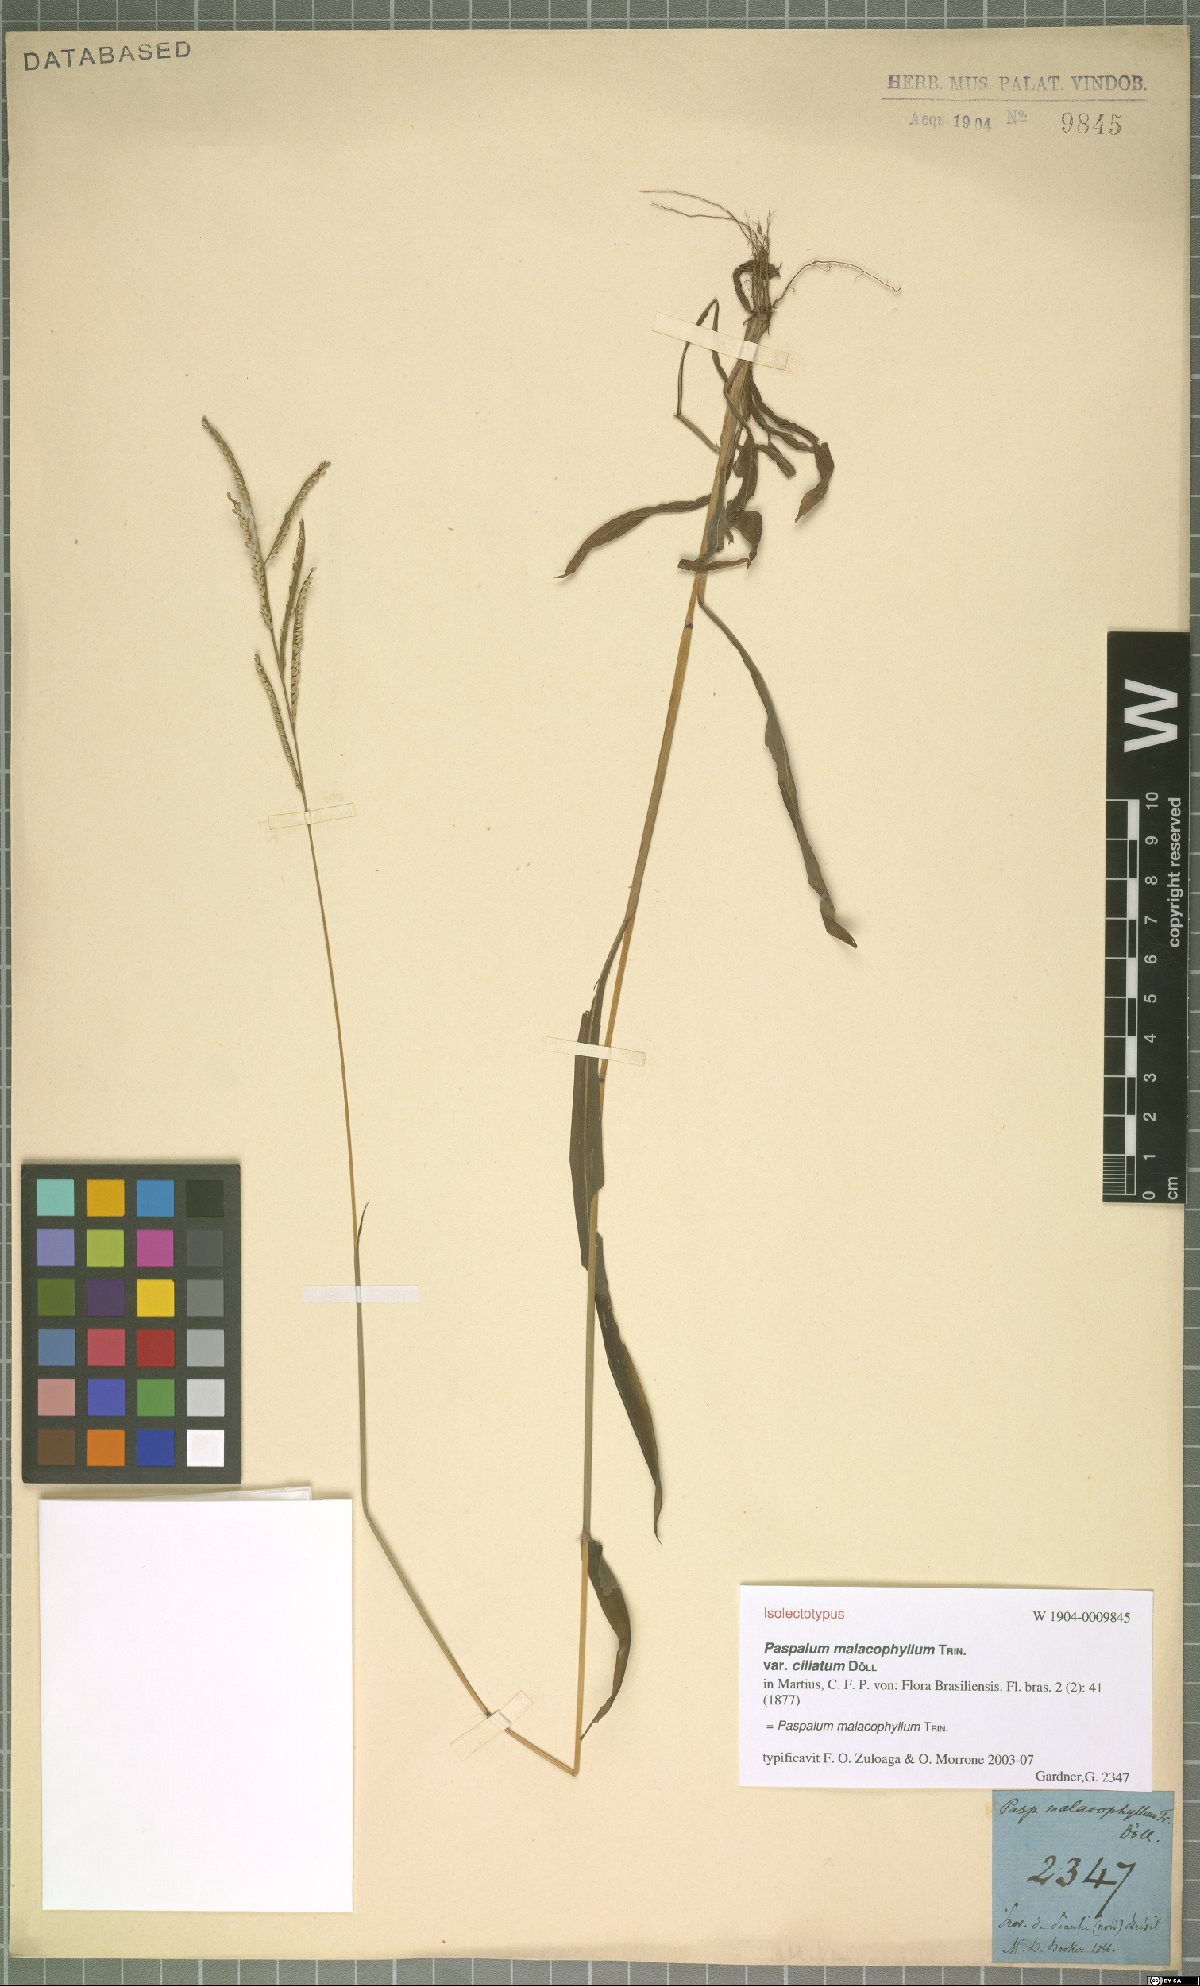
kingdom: Plantae
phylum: Tracheophyta
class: Liliopsida
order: Poales
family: Poaceae
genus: Paspalum
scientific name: Paspalum malacophyllum
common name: Ribbed paspalum
